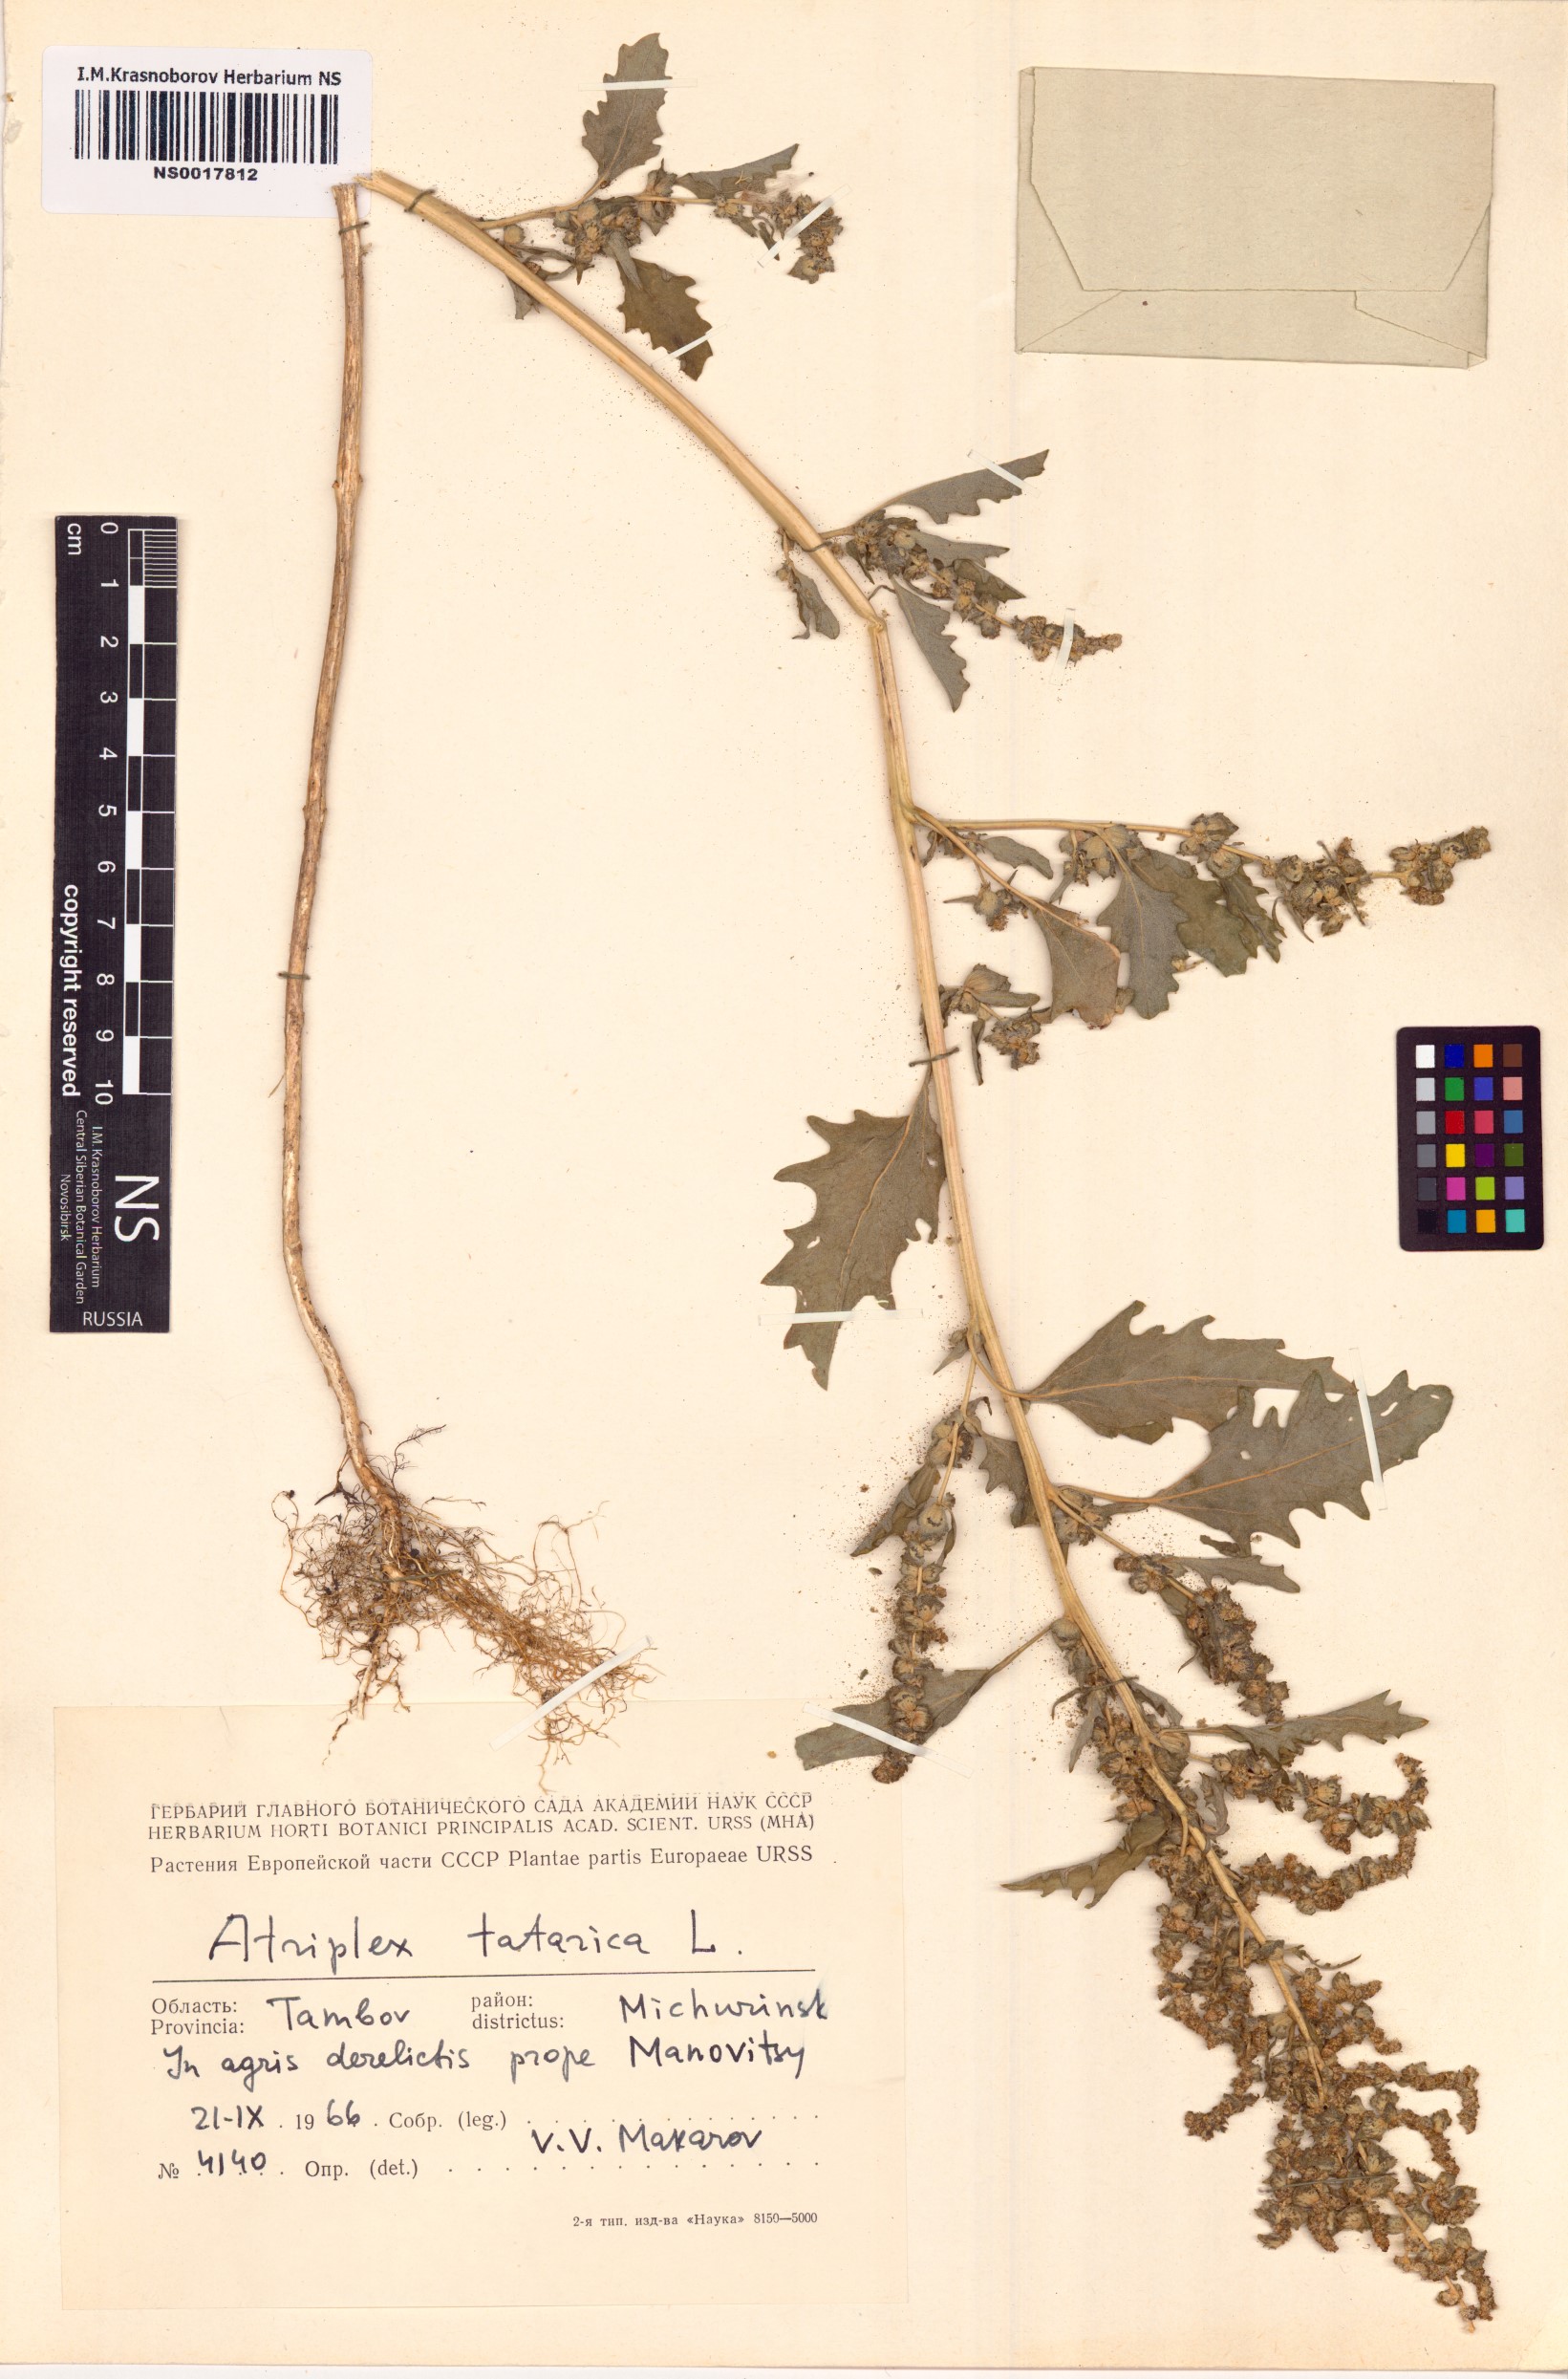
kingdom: Plantae
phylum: Tracheophyta
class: Magnoliopsida
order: Caryophyllales
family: Amaranthaceae
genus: Atriplex
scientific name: Atriplex tatarica
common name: Tatarian orache
